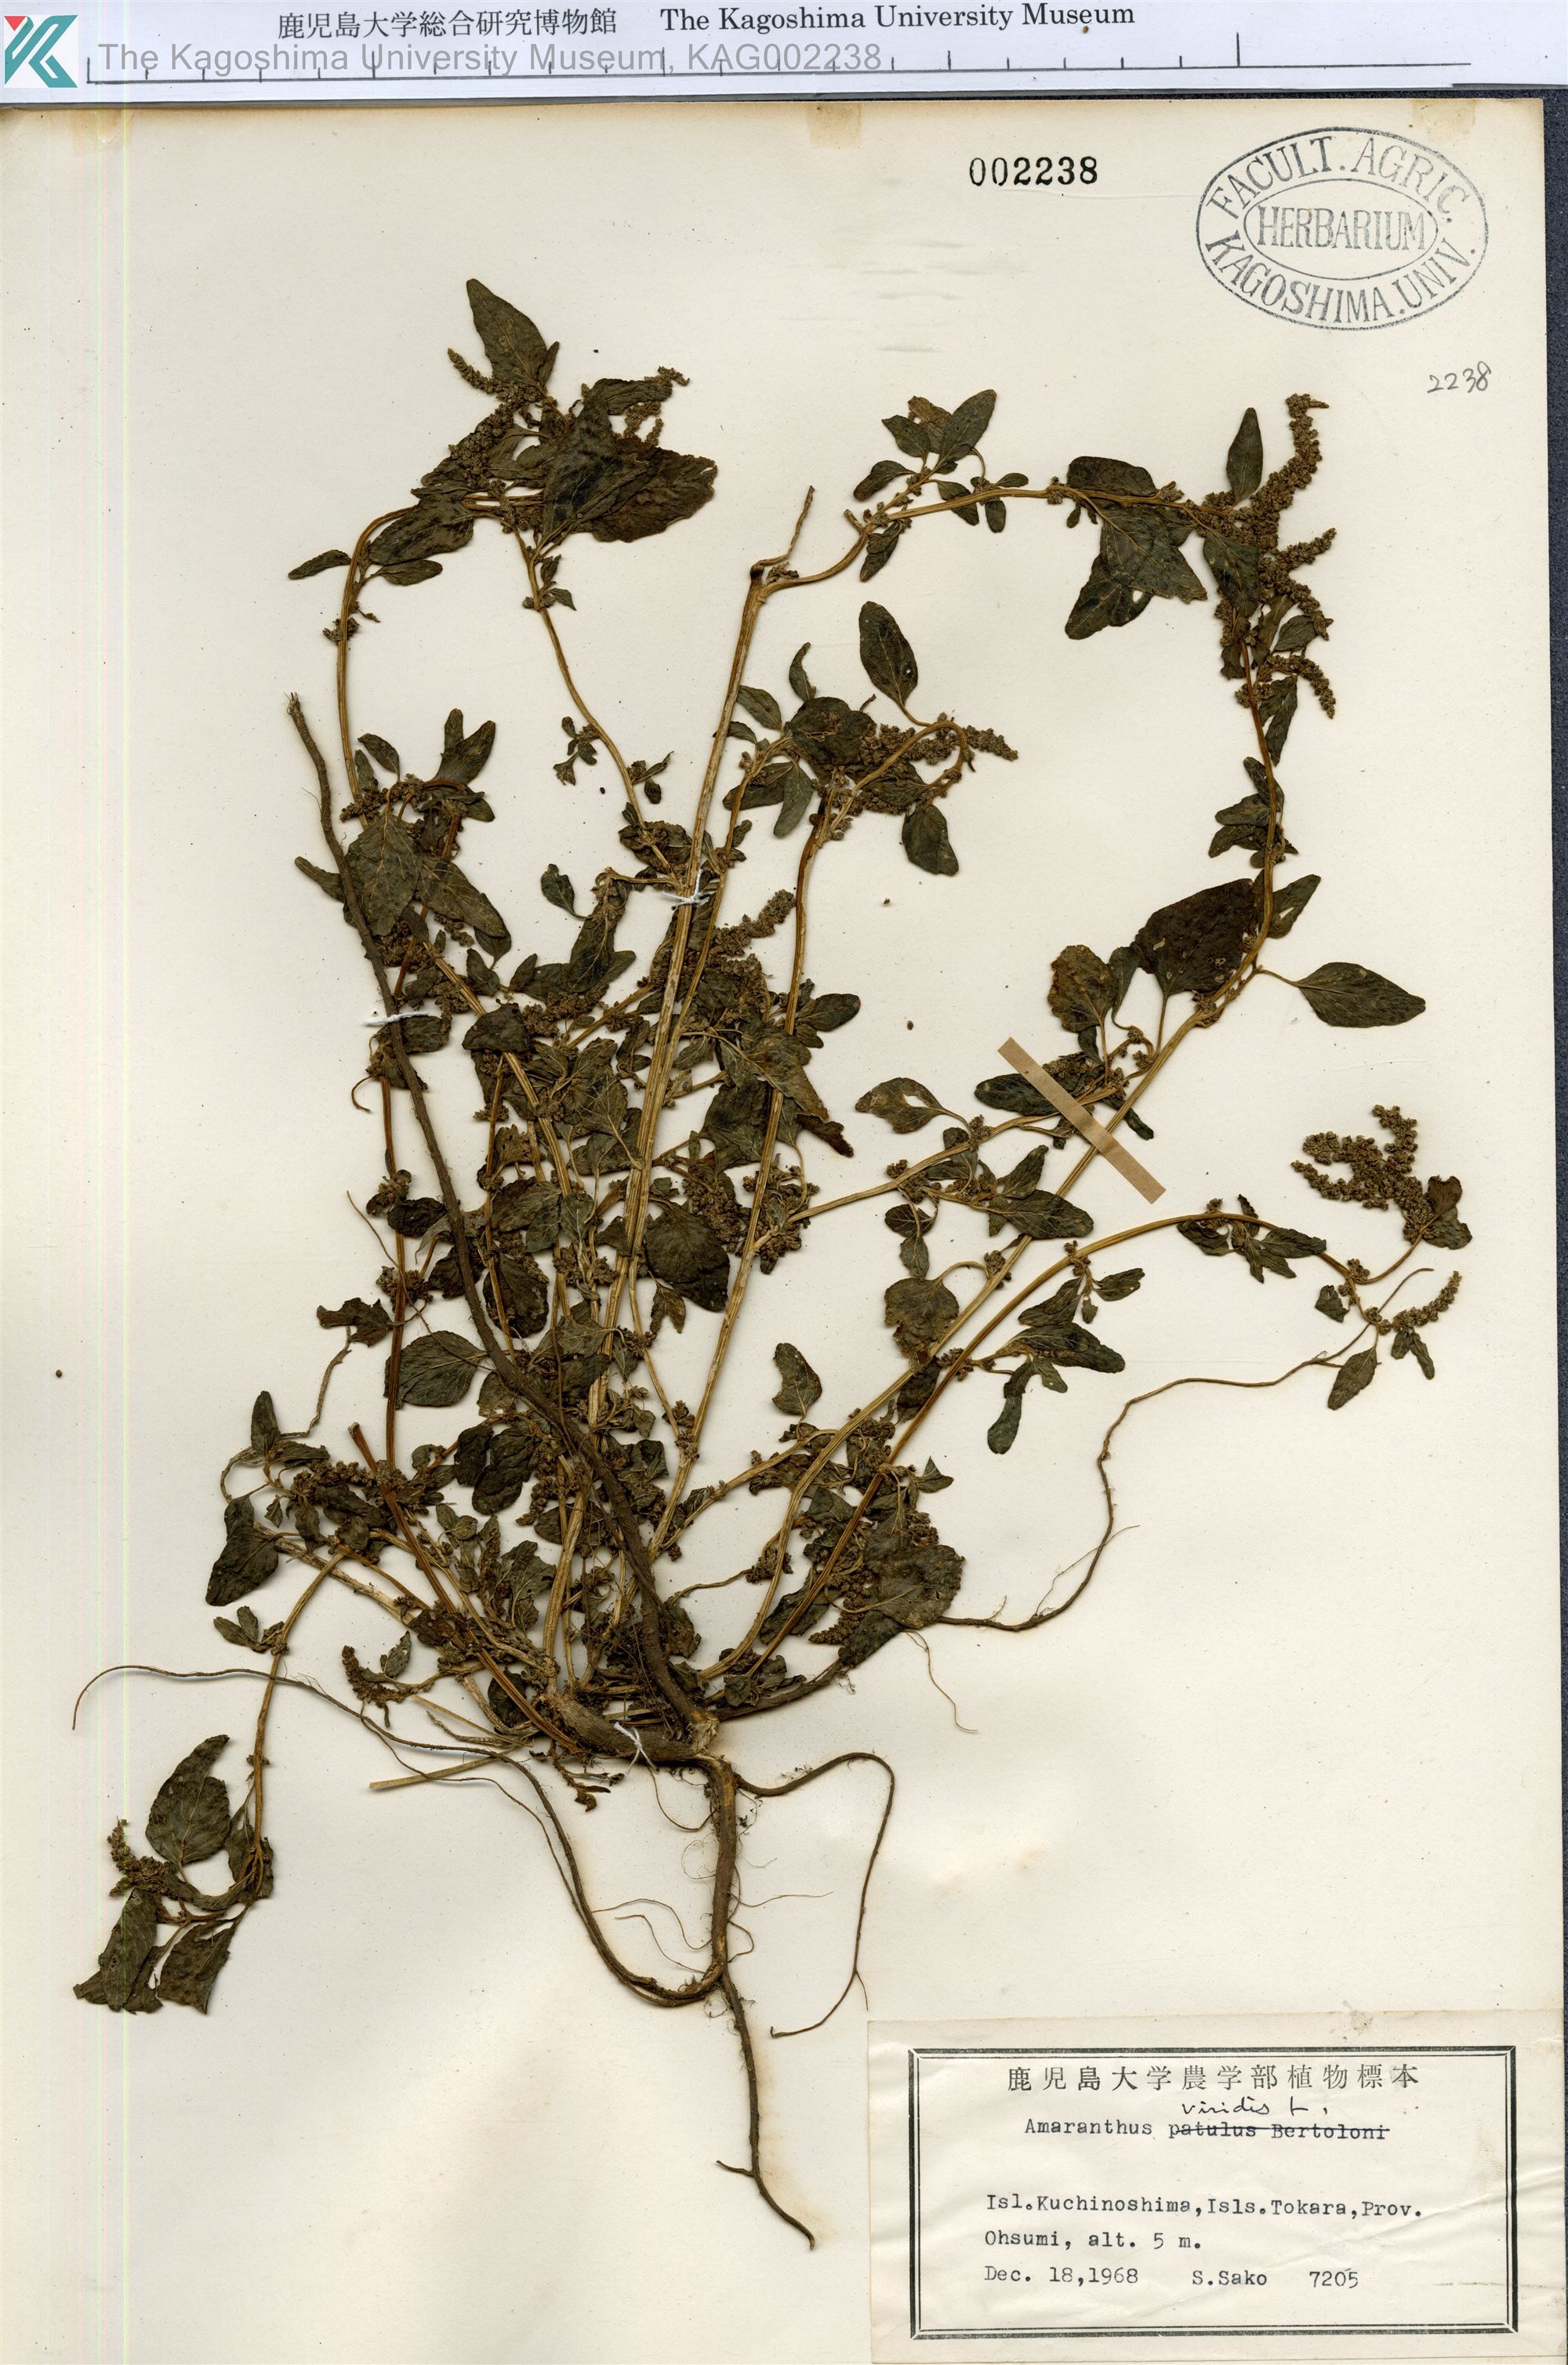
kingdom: Plantae
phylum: Tracheophyta
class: Magnoliopsida
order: Caryophyllales
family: Amaranthaceae
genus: Amaranthus
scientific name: Amaranthus viridis
